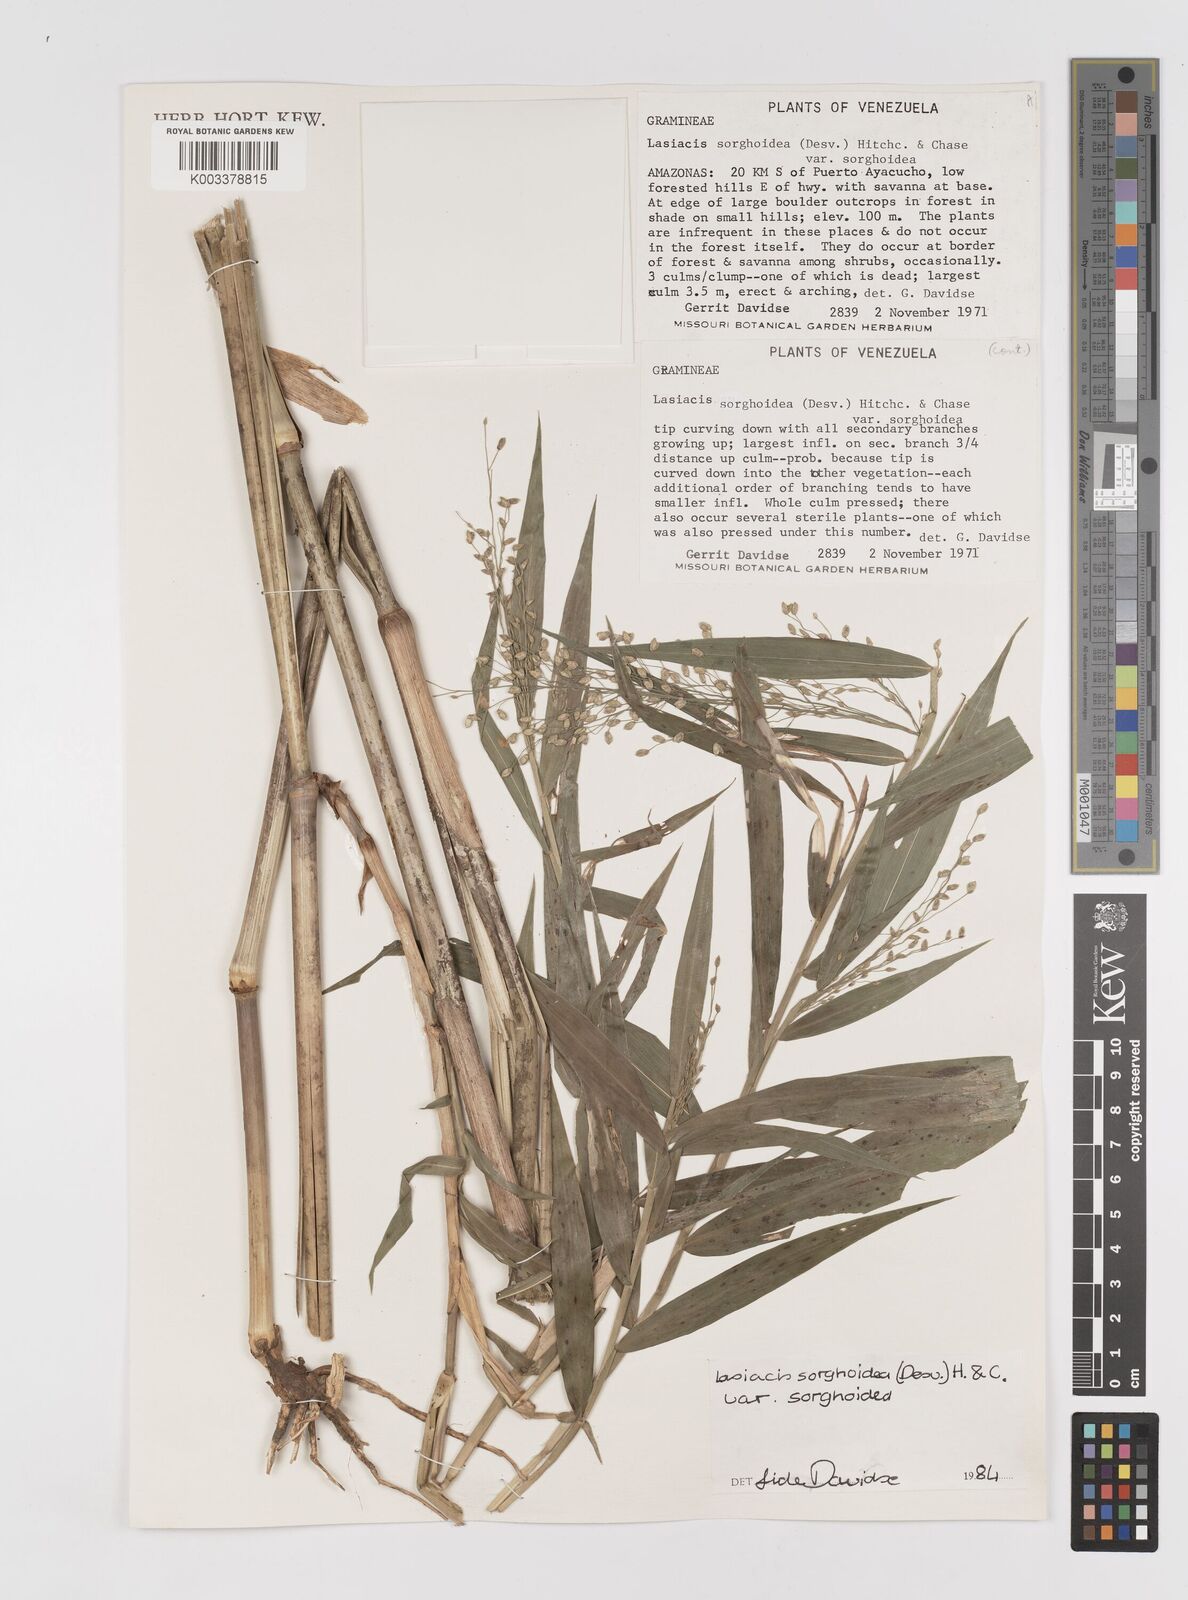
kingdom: Plantae
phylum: Tracheophyta
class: Liliopsida
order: Poales
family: Poaceae
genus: Lasiacis
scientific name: Lasiacis maculata
